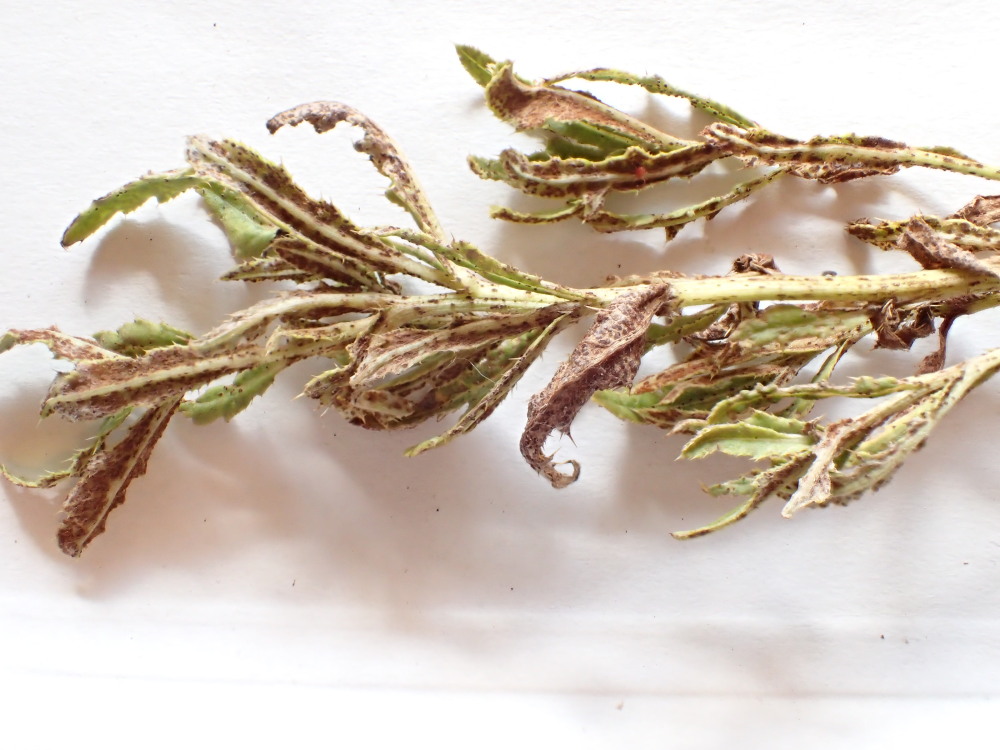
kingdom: Fungi
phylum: Basidiomycota
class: Pucciniomycetes
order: Pucciniales
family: Pucciniaceae
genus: Puccinia
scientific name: Puccinia suaveolens
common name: tidsel-tvecellerust
